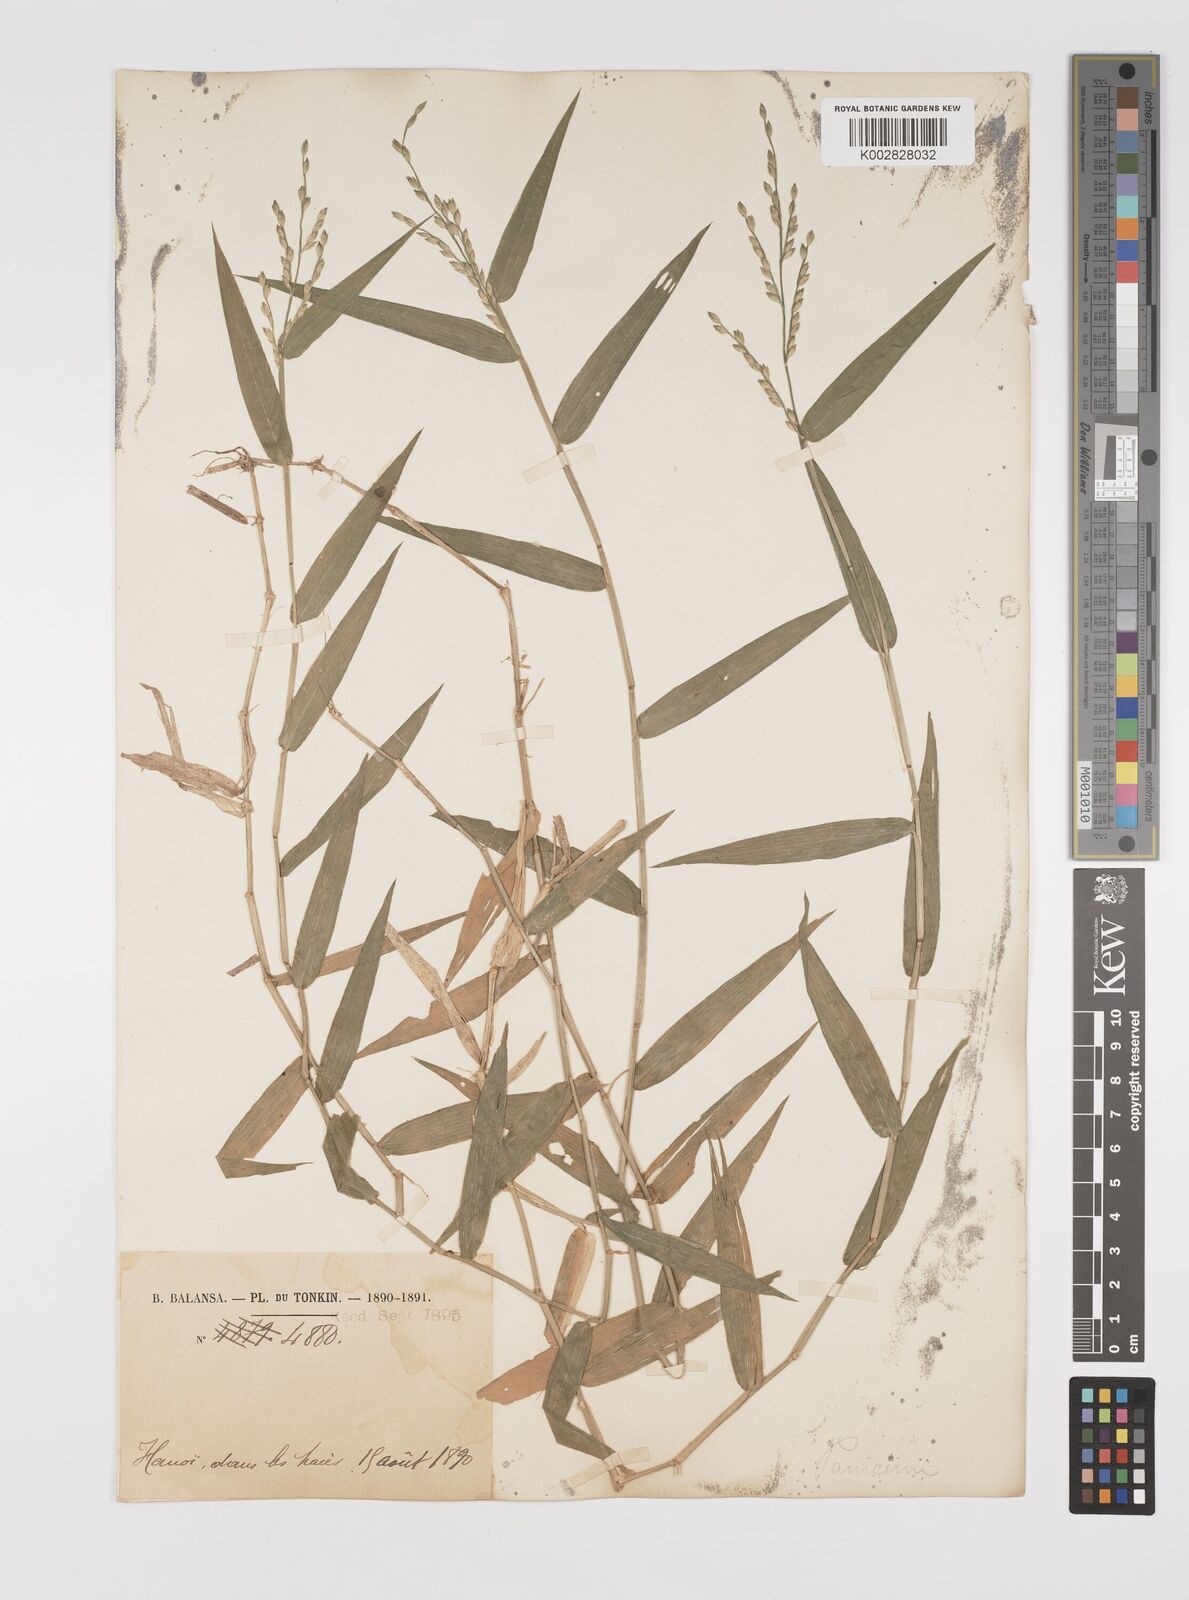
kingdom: Plantae
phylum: Tracheophyta
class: Liliopsida
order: Poales
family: Poaceae
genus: Acroceras
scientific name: Acroceras munroanum
